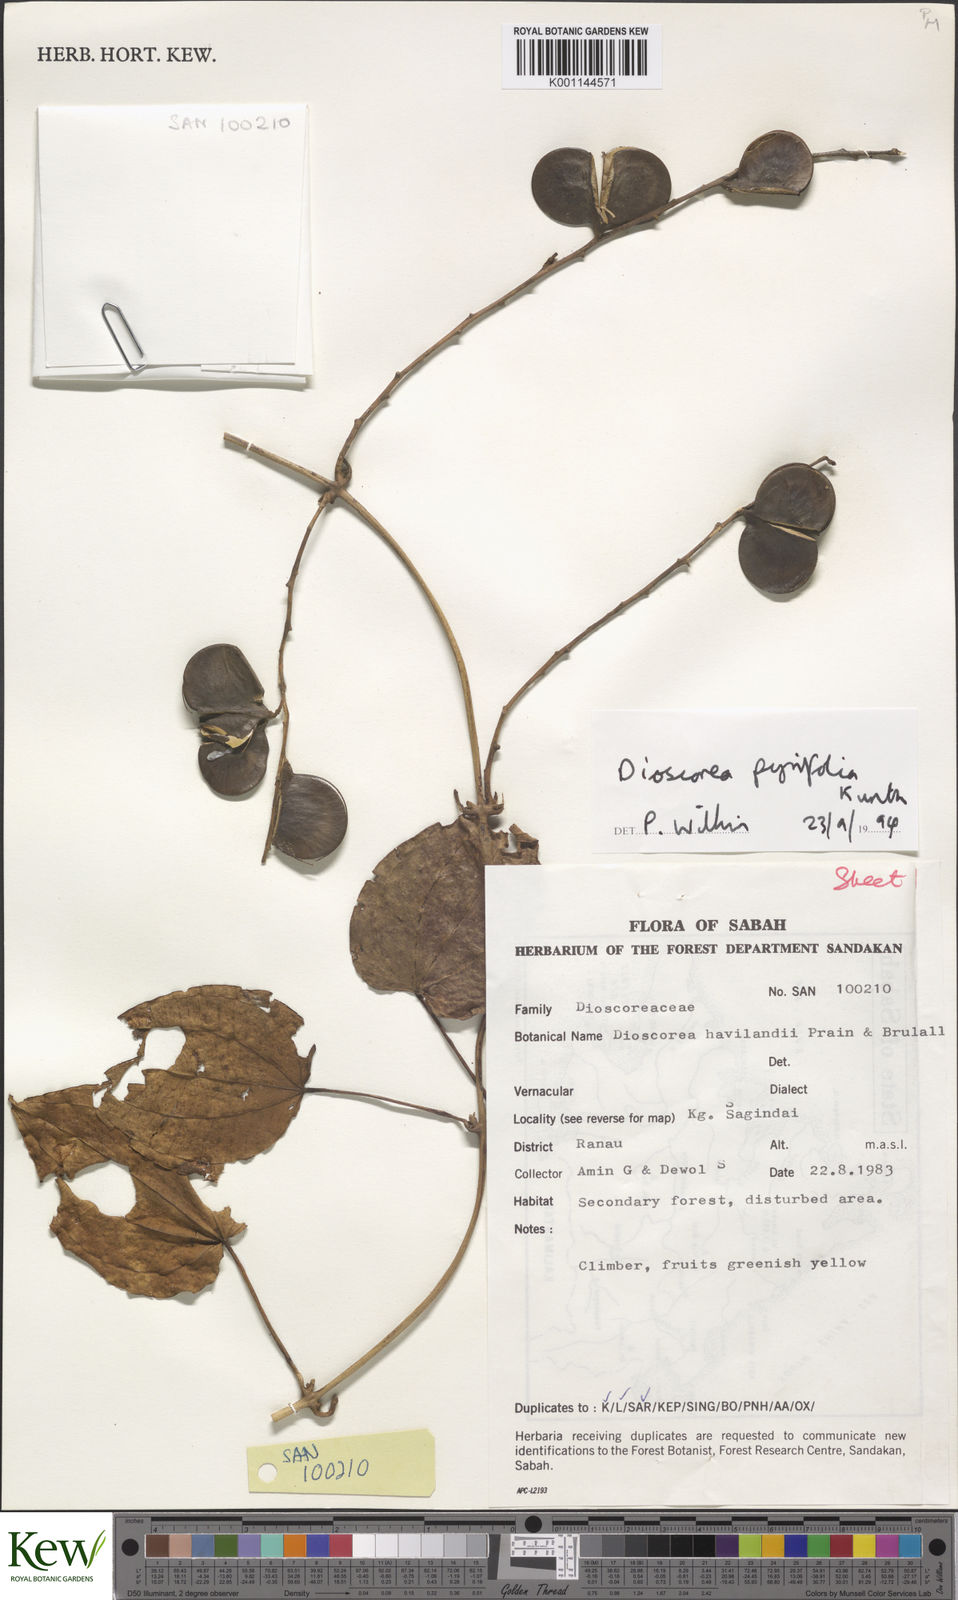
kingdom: Plantae
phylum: Tracheophyta
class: Liliopsida
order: Dioscoreales
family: Dioscoreaceae
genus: Dioscorea
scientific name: Dioscorea pyrifolia
